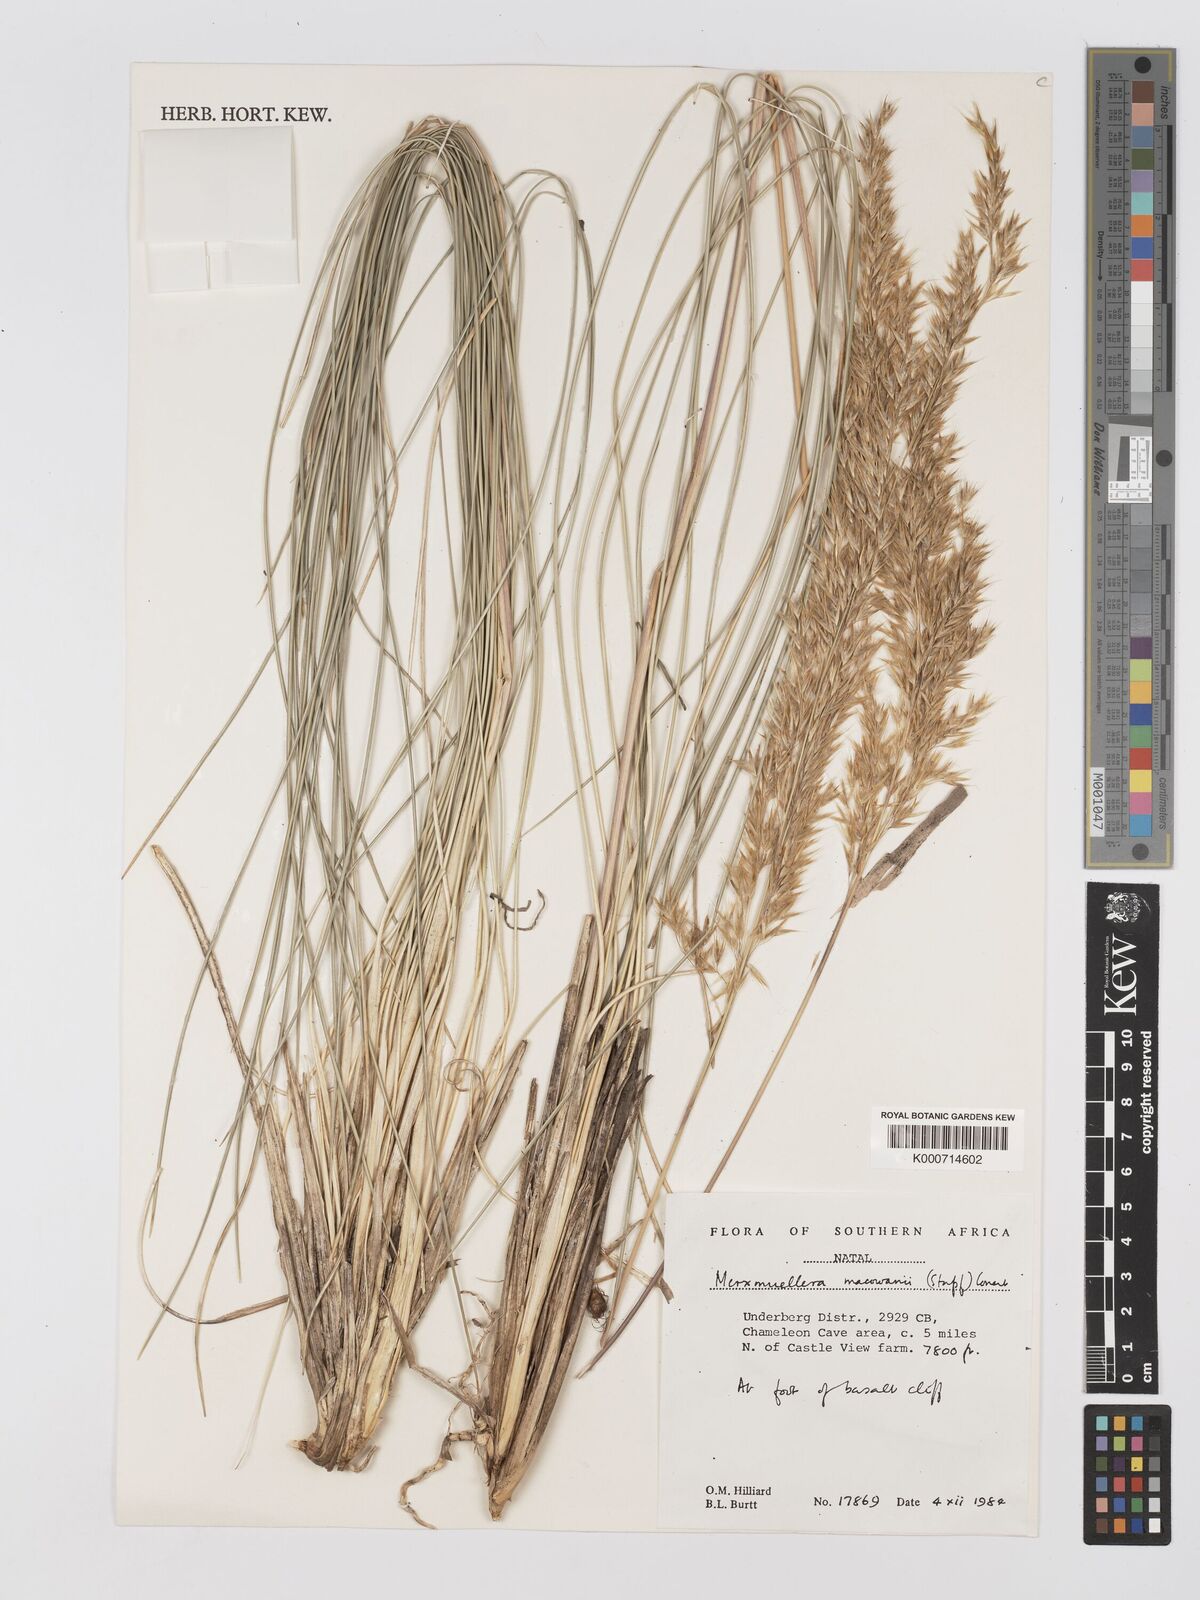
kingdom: Plantae
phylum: Tracheophyta
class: Liliopsida
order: Poales
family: Poaceae
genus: Rytidosperma
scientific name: Rytidosperma
